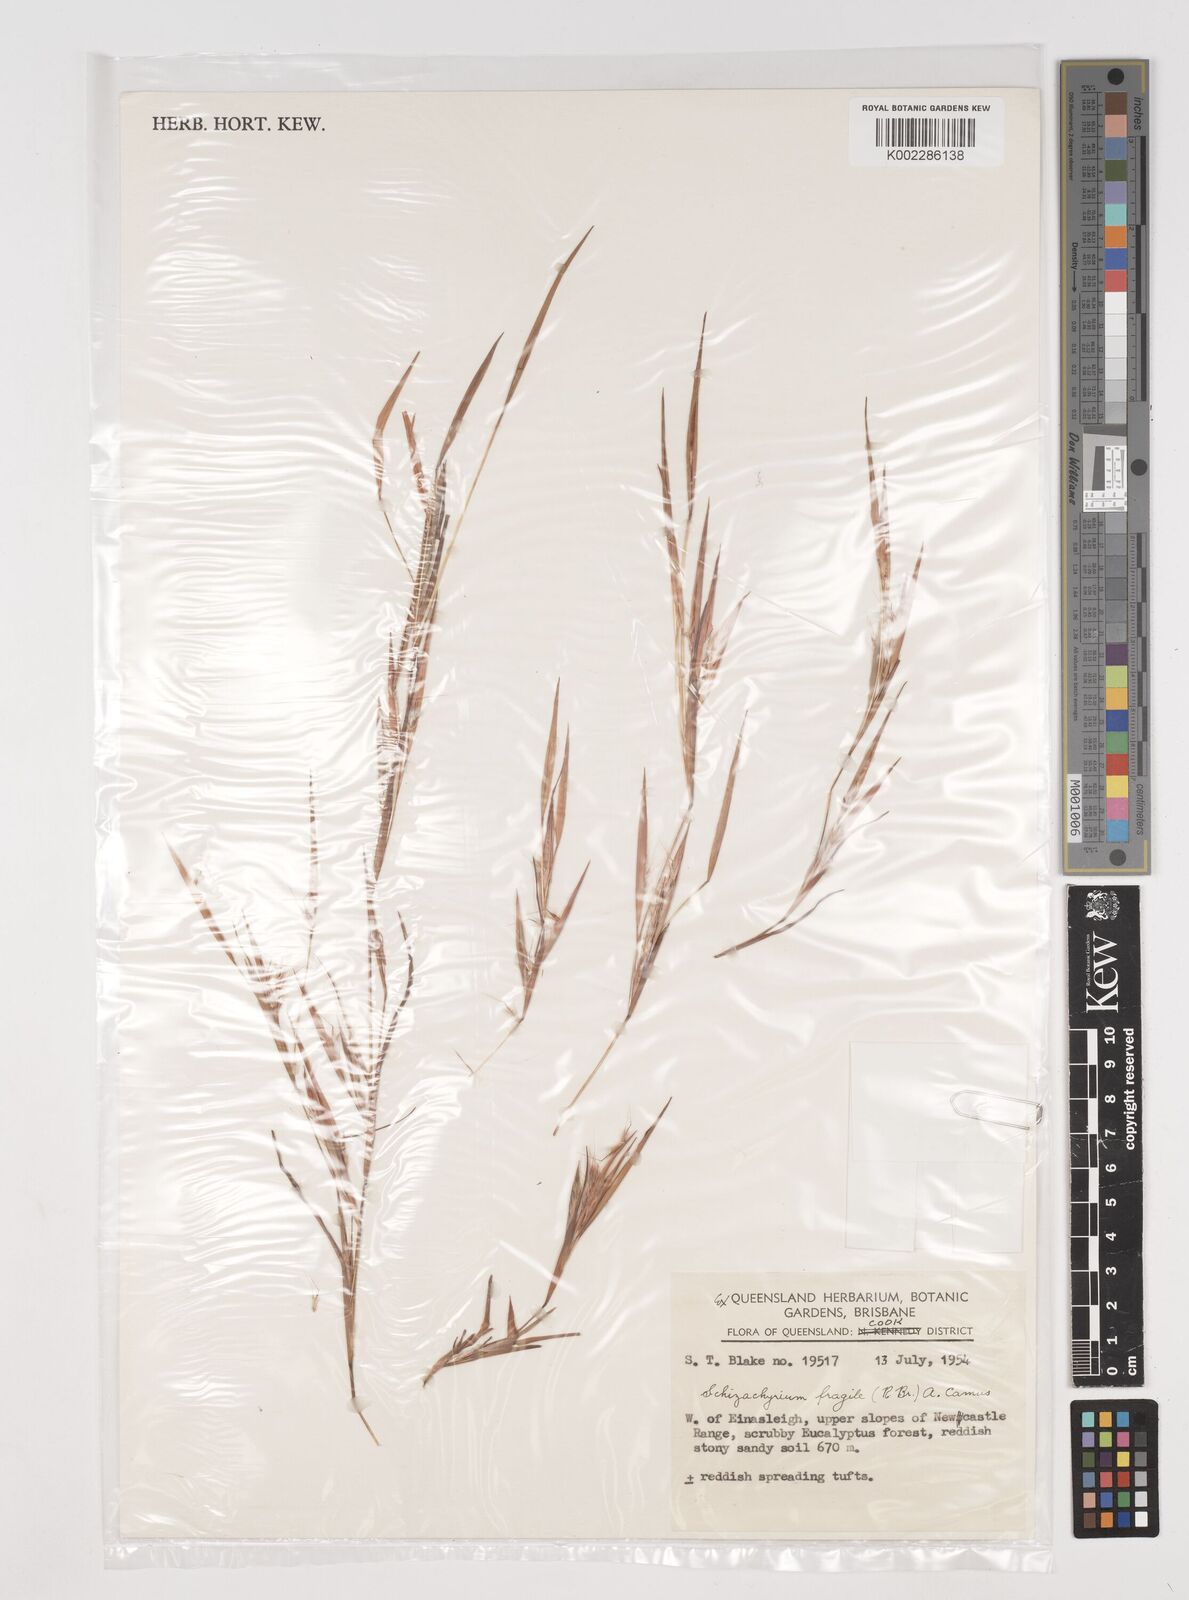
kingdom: Plantae
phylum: Tracheophyta
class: Liliopsida
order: Poales
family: Poaceae
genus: Schizachyrium
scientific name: Schizachyrium fragile
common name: Red spathe grass
